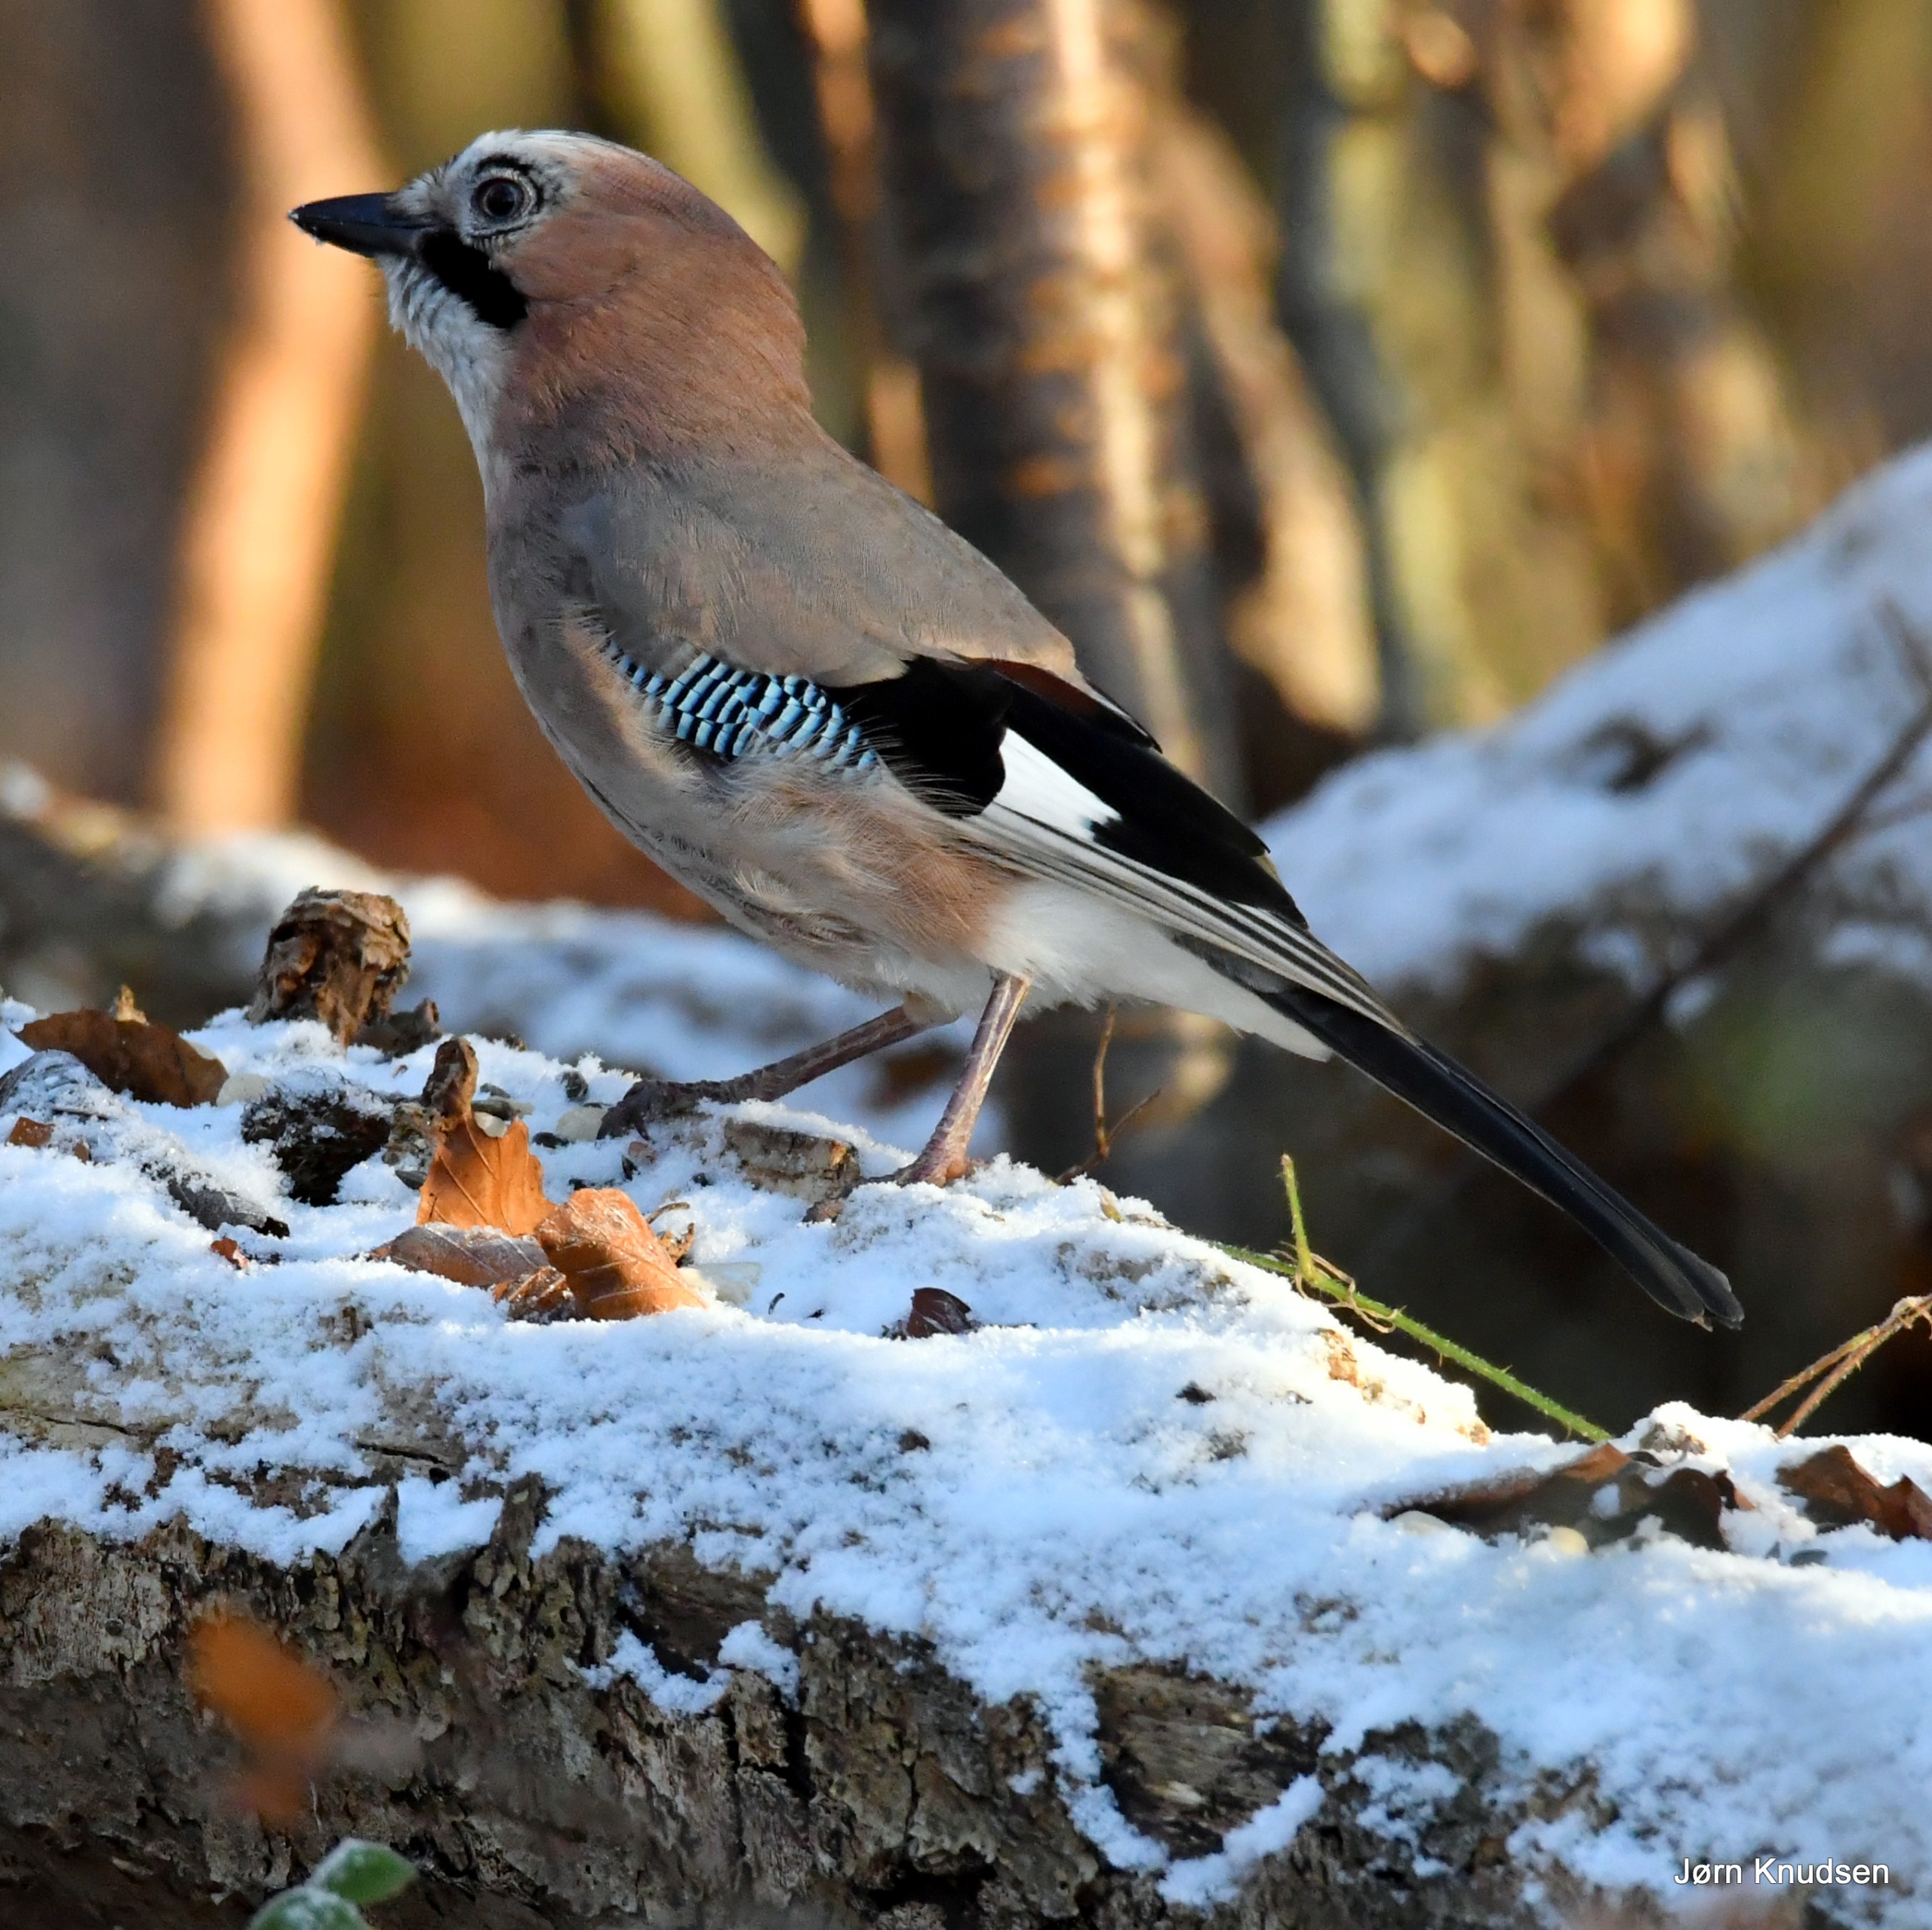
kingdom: Animalia
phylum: Chordata
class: Aves
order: Passeriformes
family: Corvidae
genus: Garrulus
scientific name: Garrulus glandarius
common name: Skovskade
